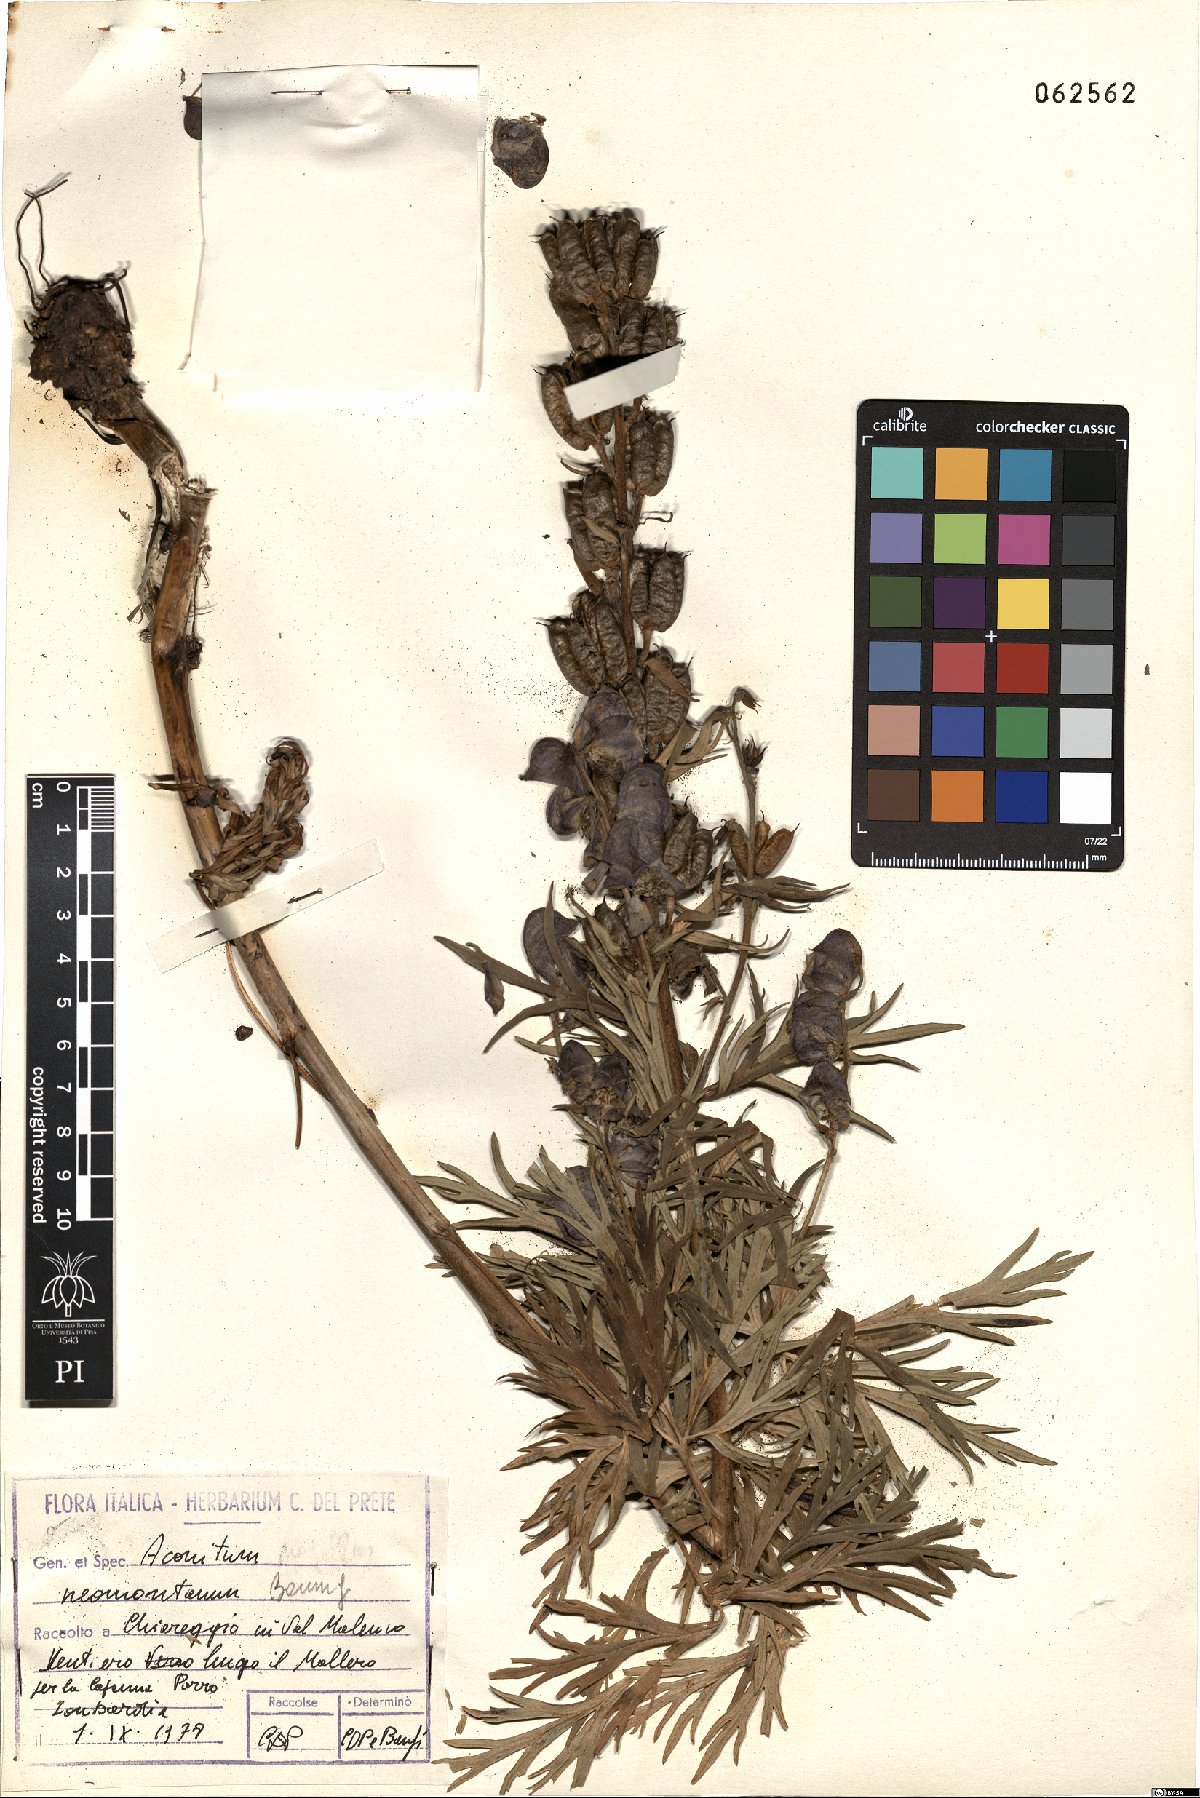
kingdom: Plantae
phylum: Tracheophyta
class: Magnoliopsida
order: Ranunculales
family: Ranunculaceae
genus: Aconitum
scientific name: Aconitum napellus
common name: Garden monkshood
